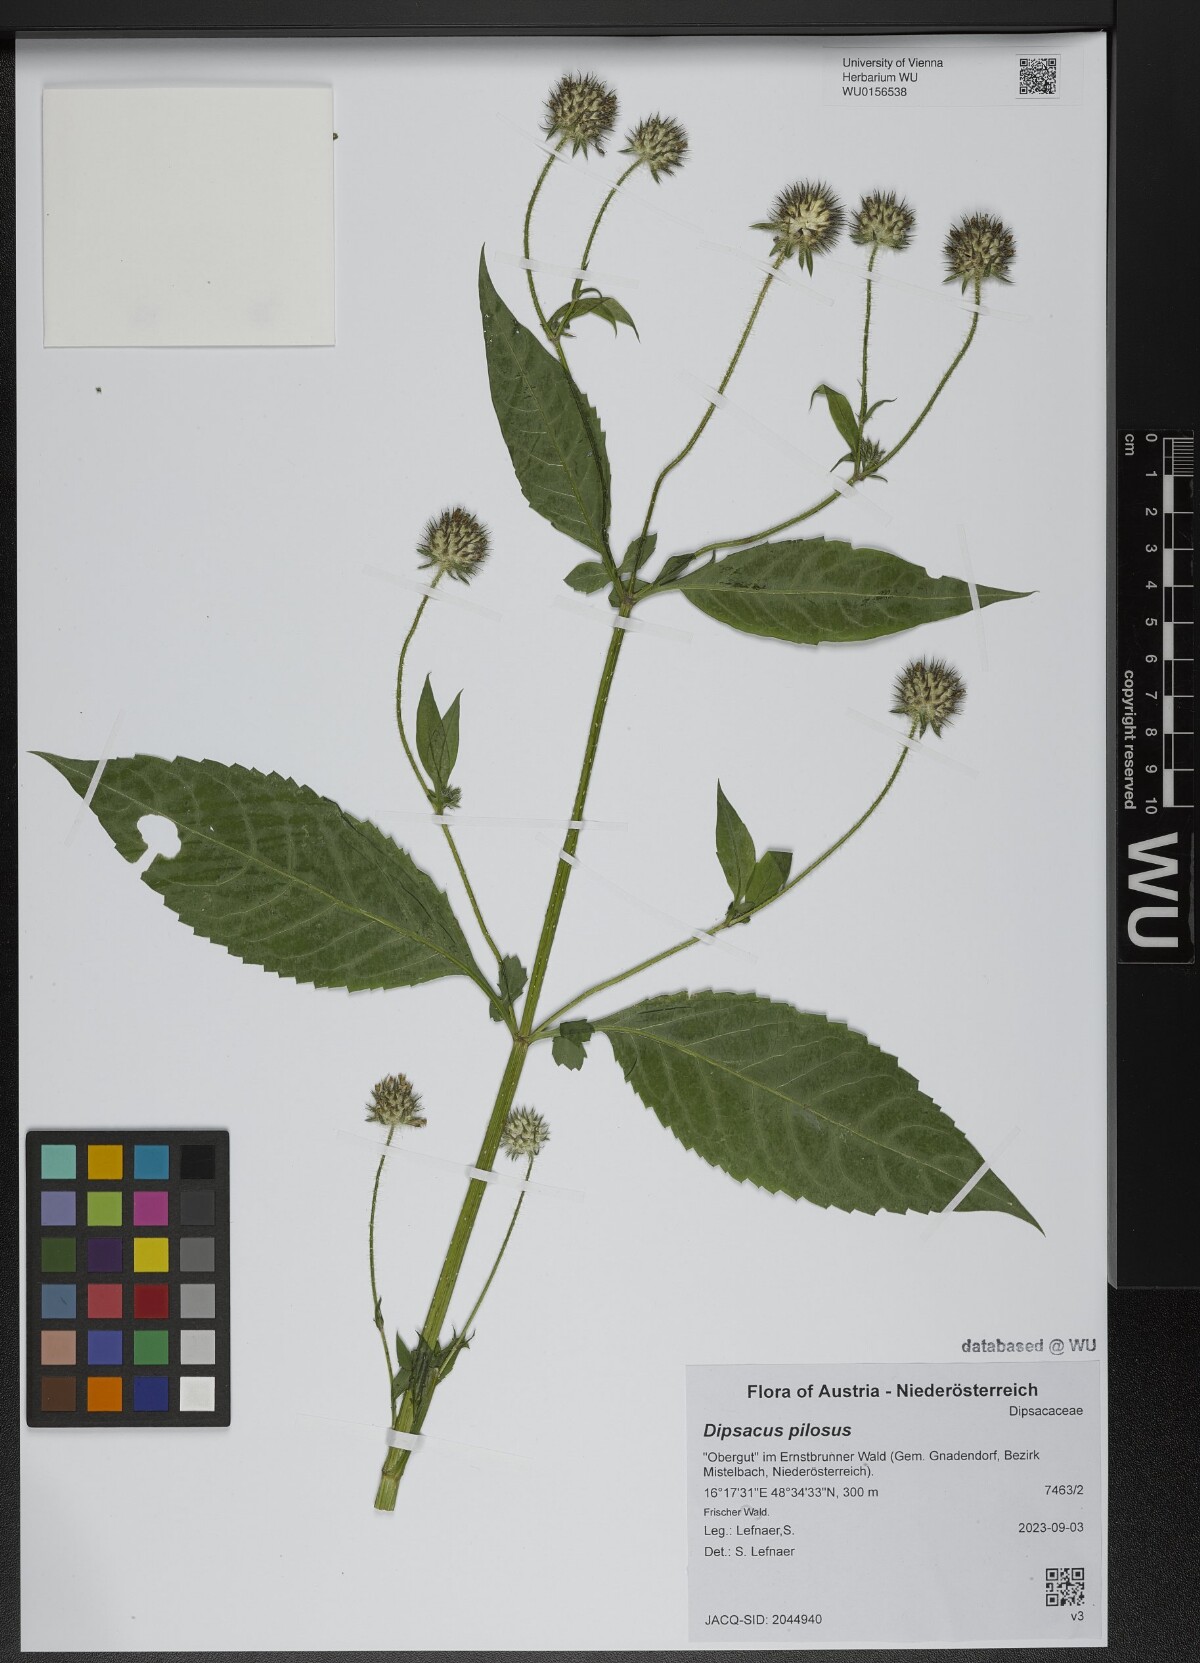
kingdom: Plantae
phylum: Tracheophyta
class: Magnoliopsida
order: Dipsacales
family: Caprifoliaceae
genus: Dipsacus
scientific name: Dipsacus pilosus
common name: Small teasel
